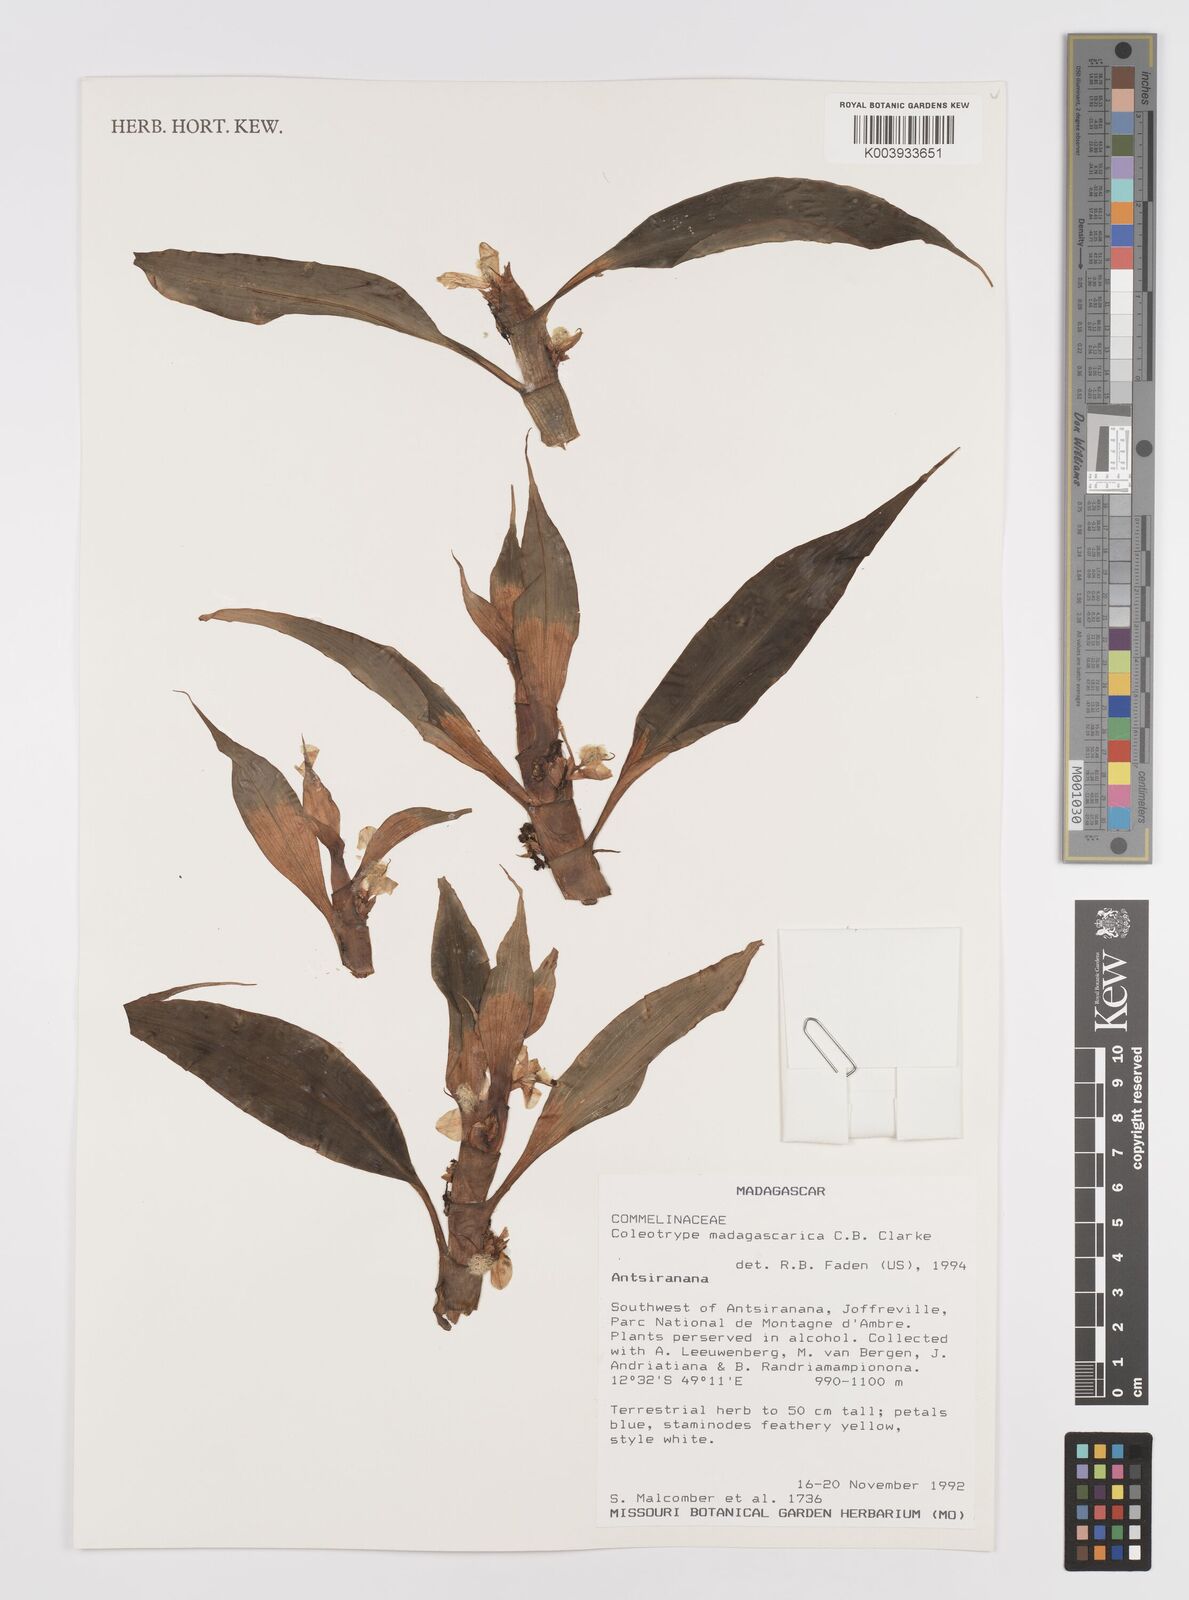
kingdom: Plantae
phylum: Tracheophyta
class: Liliopsida
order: Commelinales
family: Commelinaceae
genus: Coleotrype
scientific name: Coleotrype madagascarica
